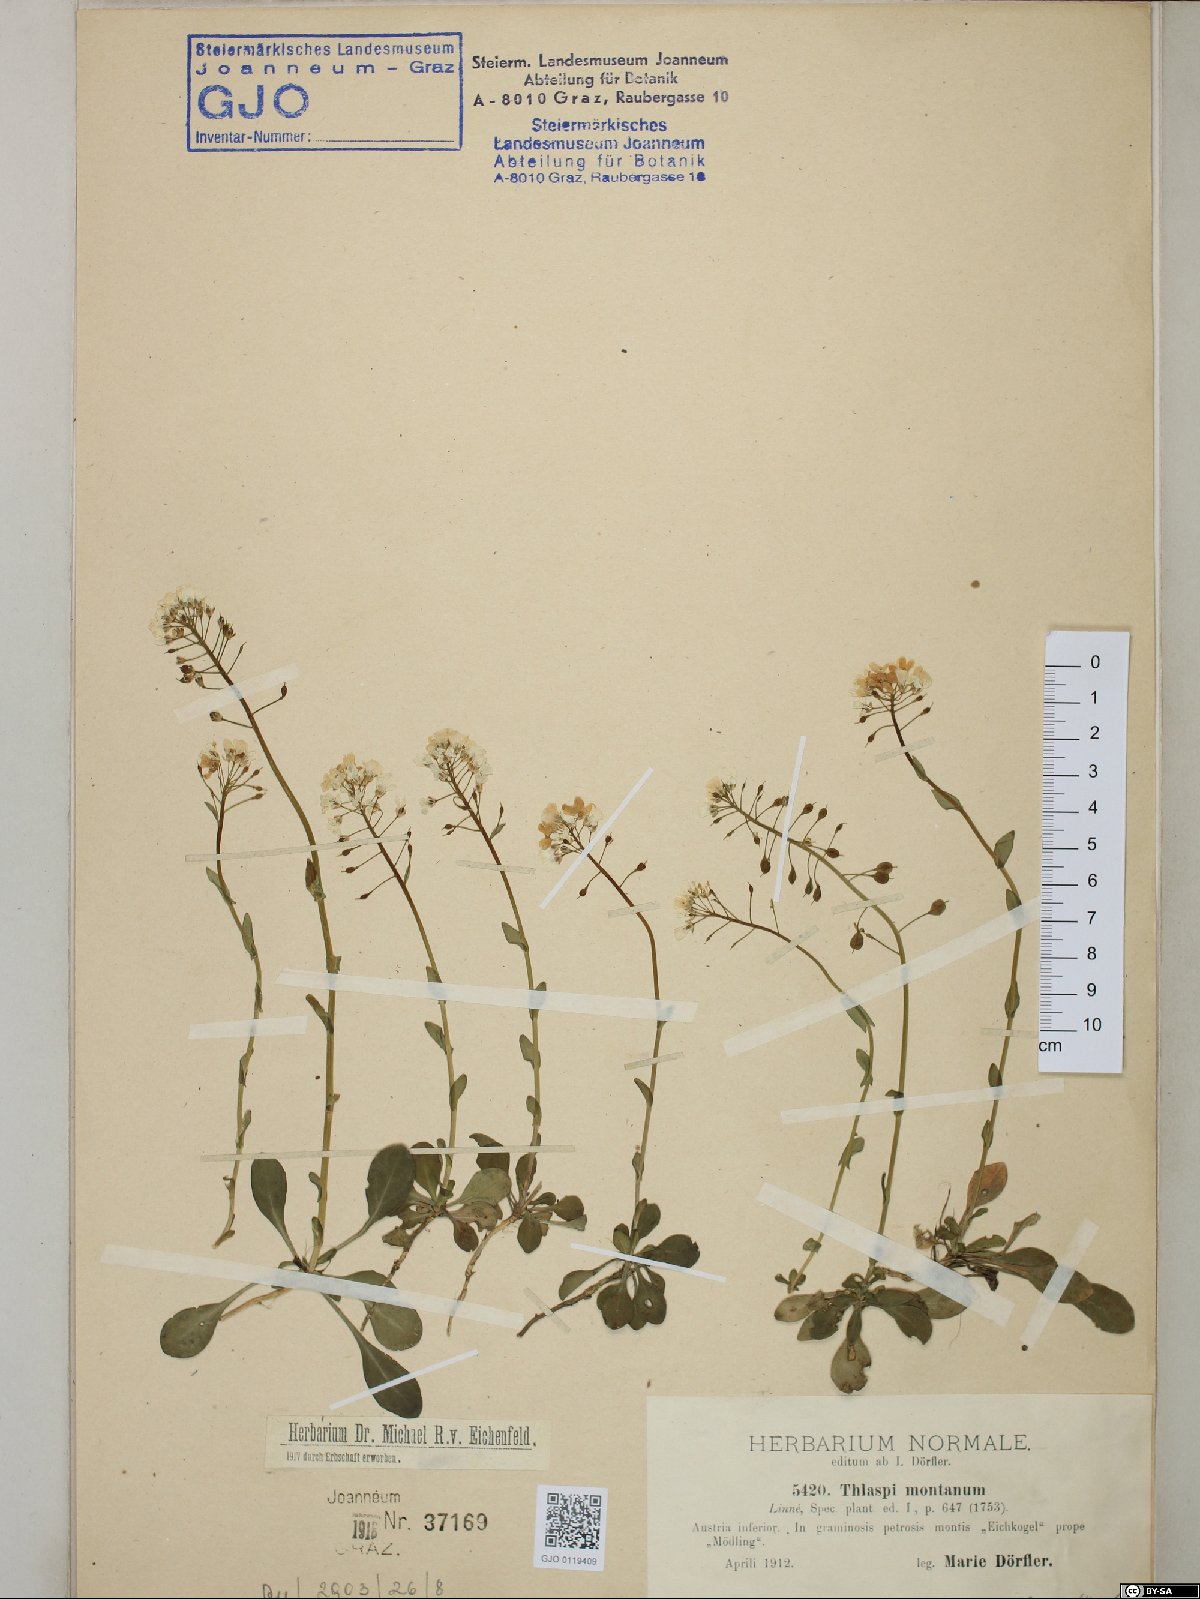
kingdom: Plantae
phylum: Tracheophyta
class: Magnoliopsida
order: Brassicales
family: Brassicaceae
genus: Noccaea
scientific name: Noccaea montana
